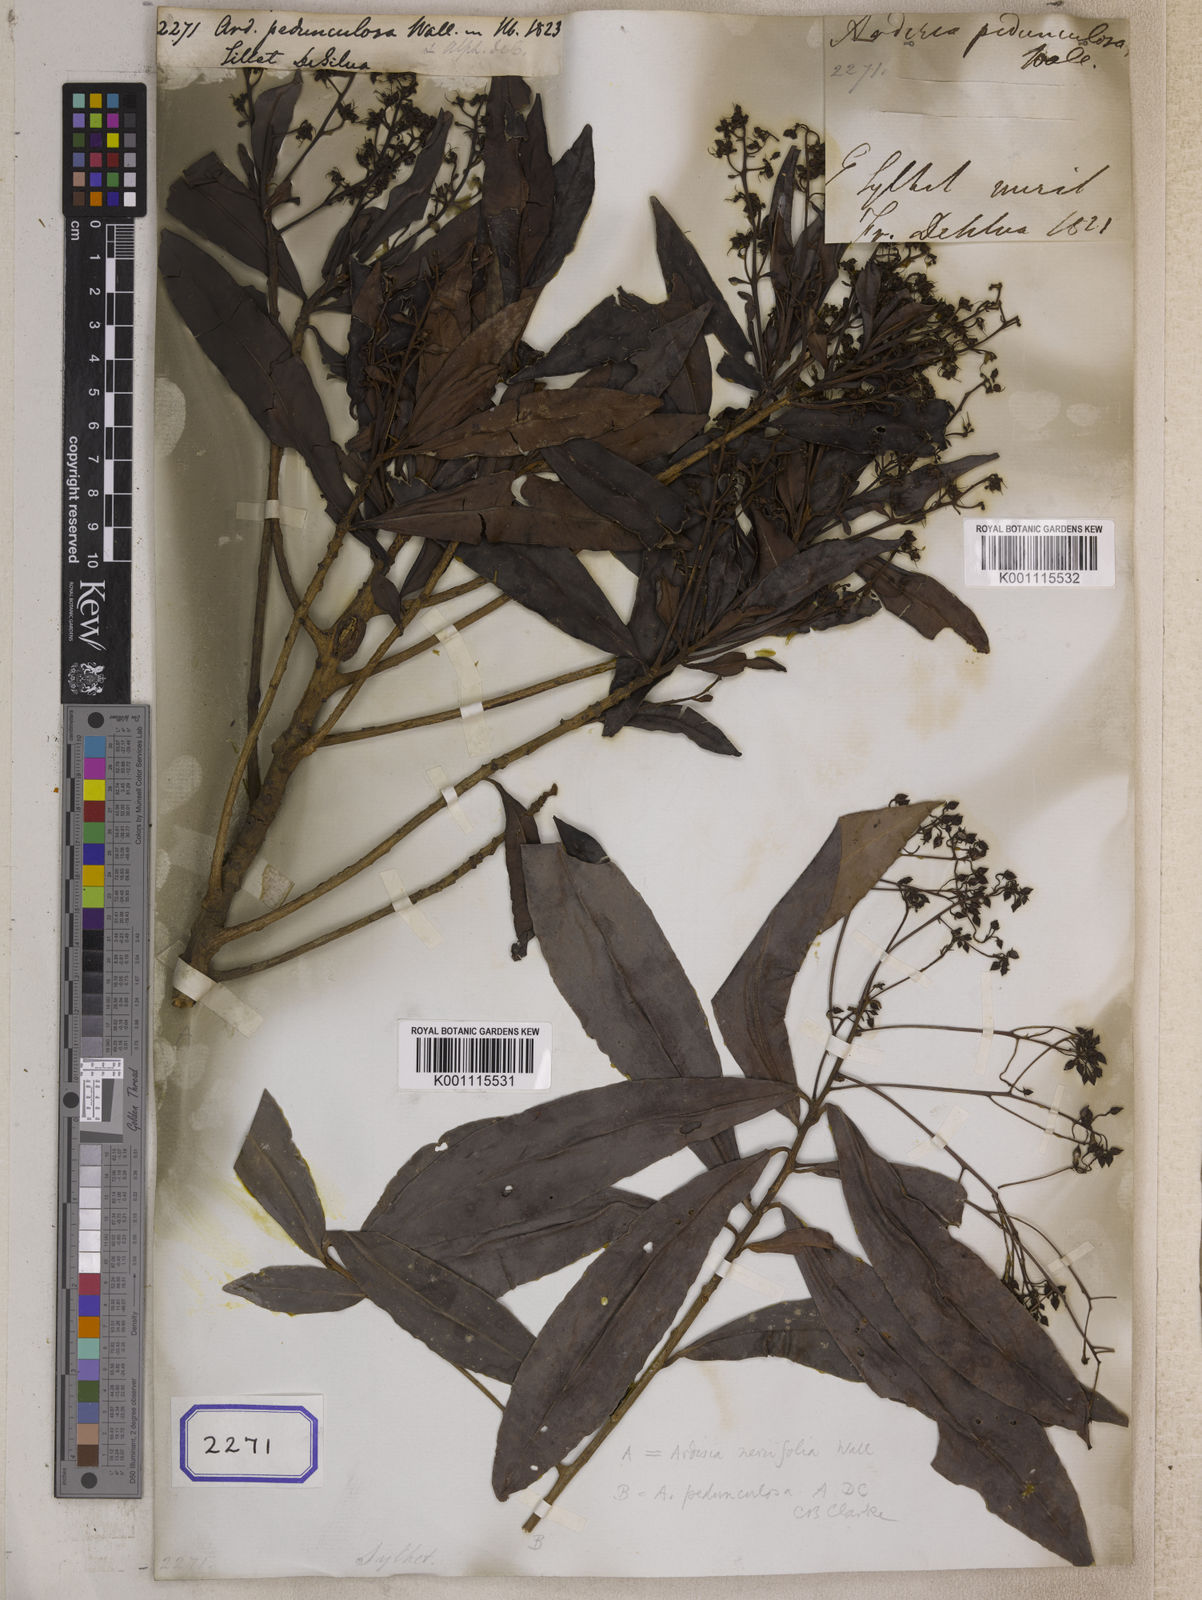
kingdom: Plantae
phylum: Tracheophyta
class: Magnoliopsida
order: Ericales
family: Primulaceae
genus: Ardisia
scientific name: Ardisia pedunculosa
